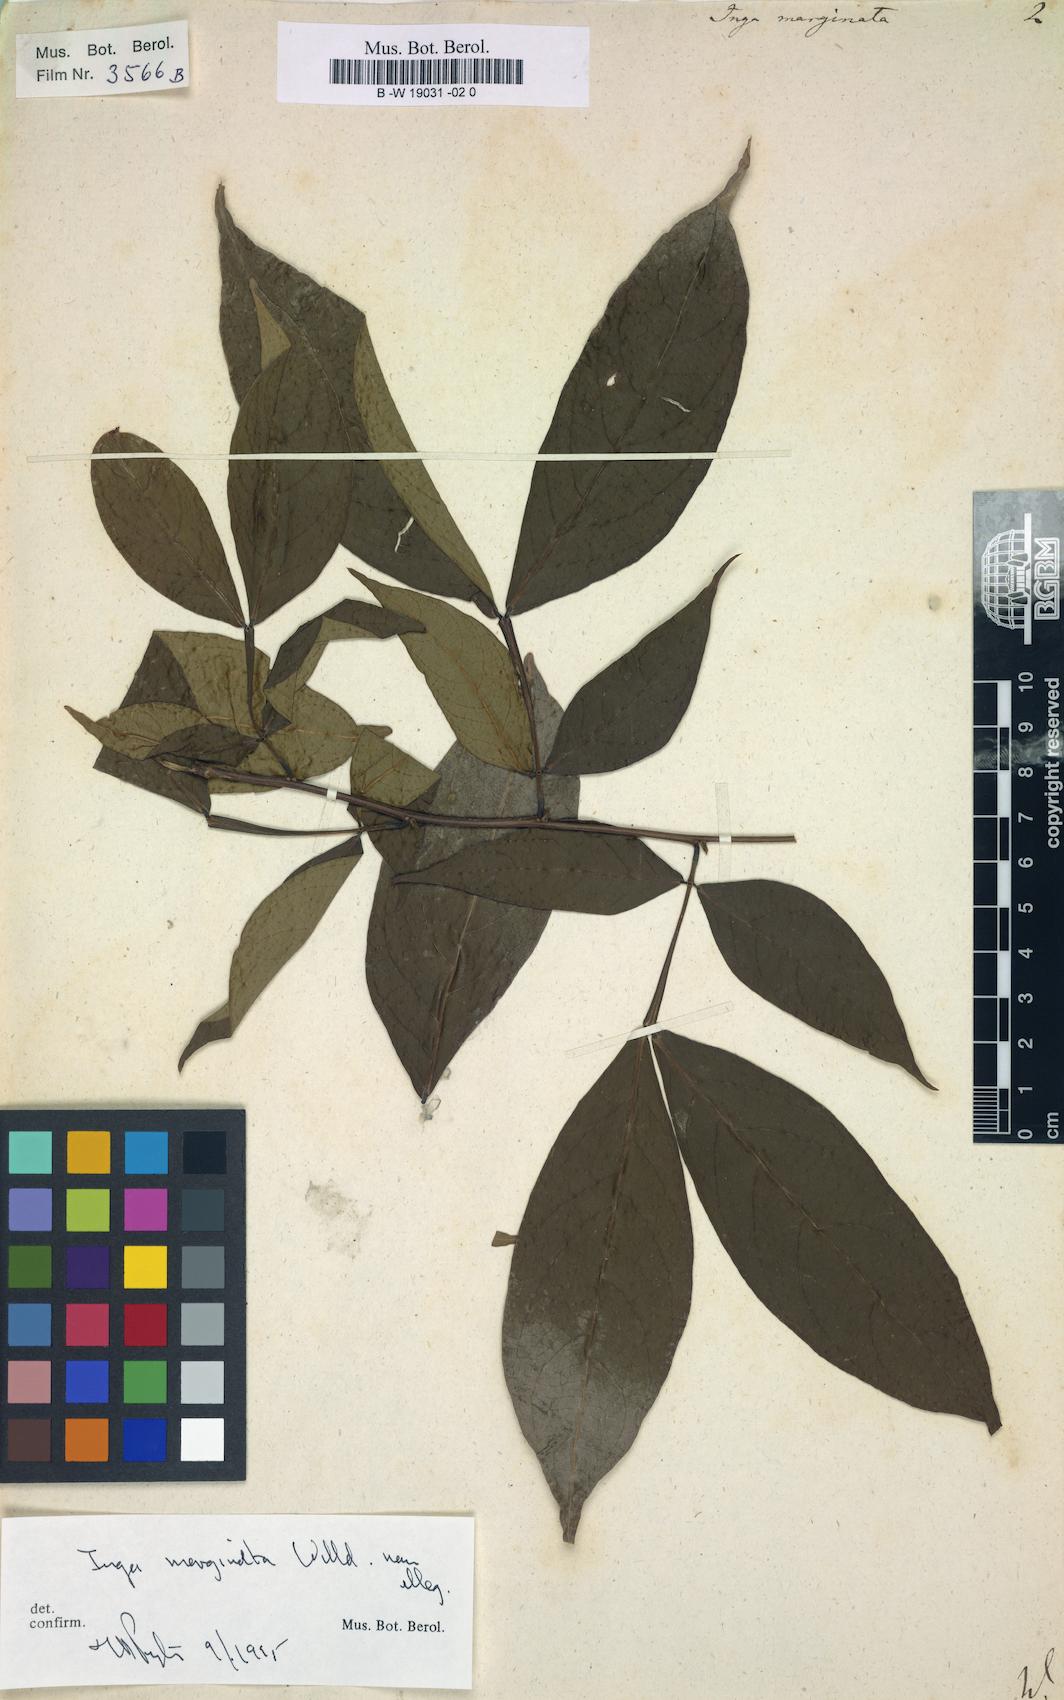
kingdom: Plantae
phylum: Tracheophyta
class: Magnoliopsida
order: Fabales
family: Fabaceae
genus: Inga
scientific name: Inga marginata
